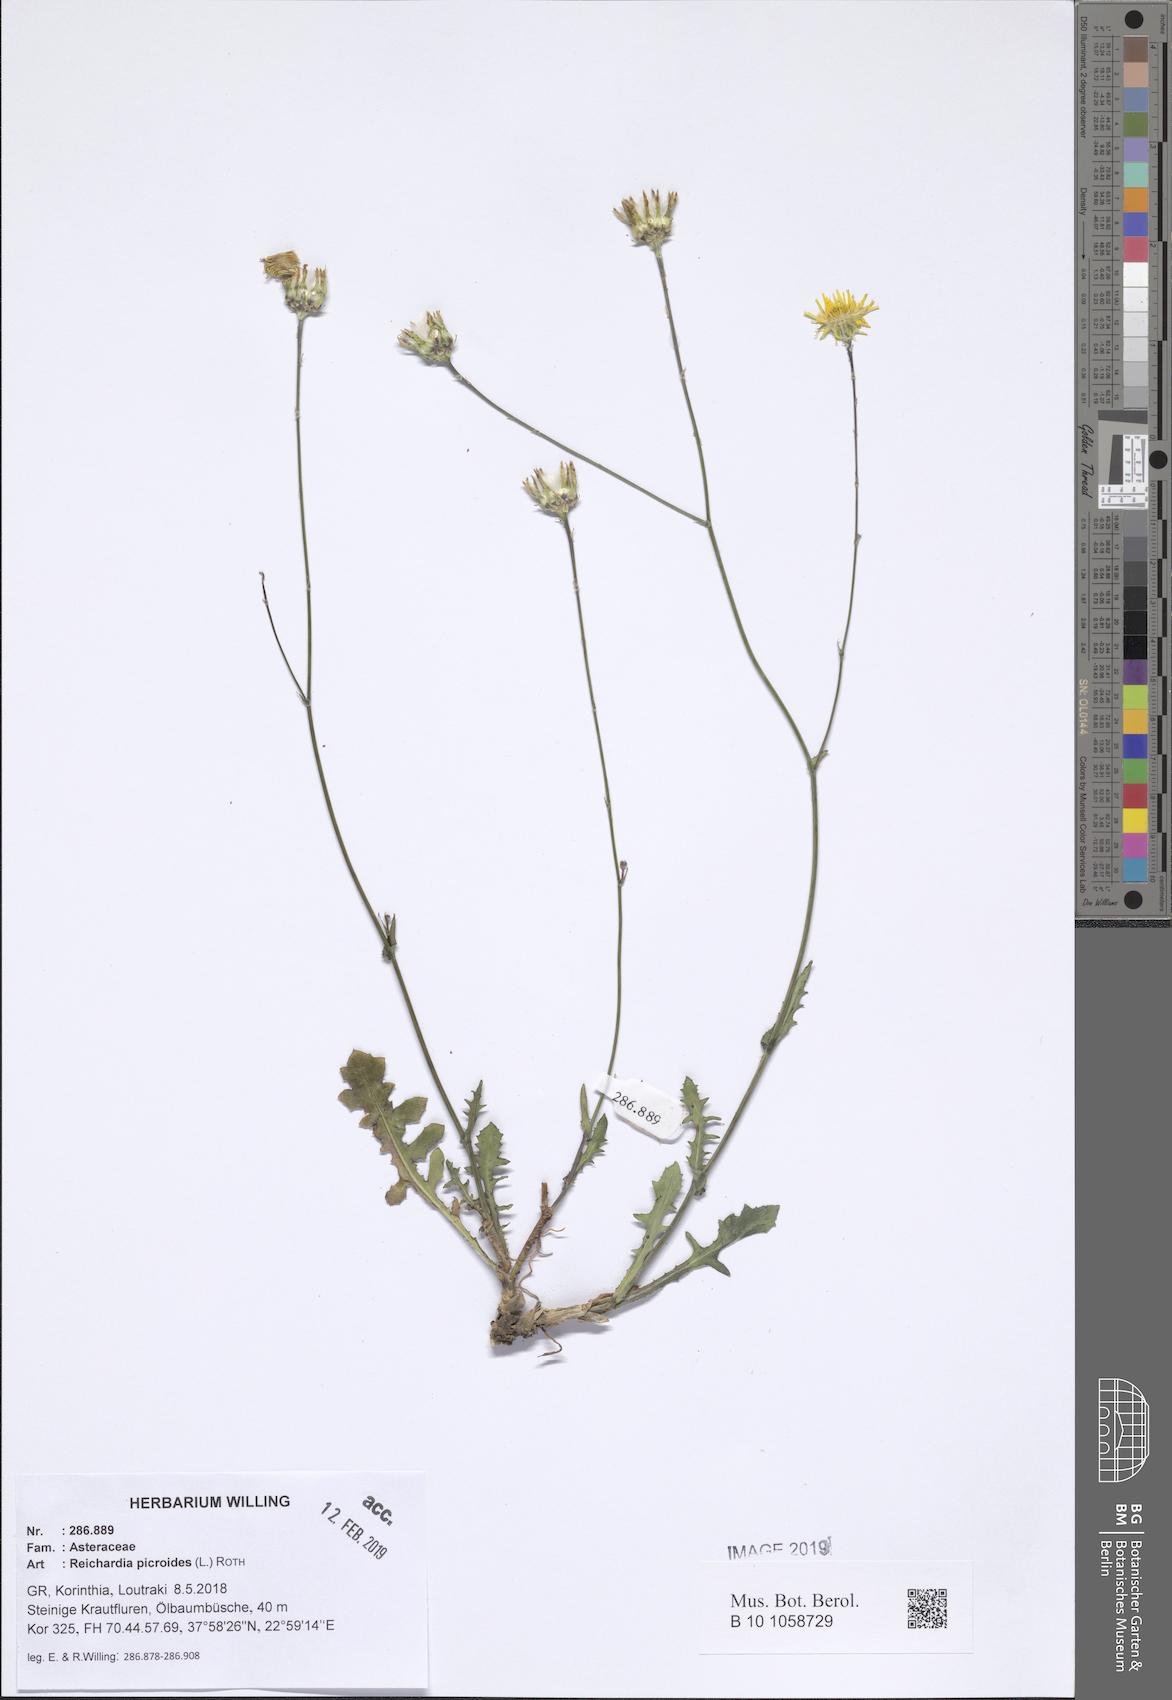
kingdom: Plantae
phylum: Tracheophyta
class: Magnoliopsida
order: Asterales
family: Asteraceae
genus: Reichardia
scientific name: Reichardia picroides
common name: Common brighteyes
